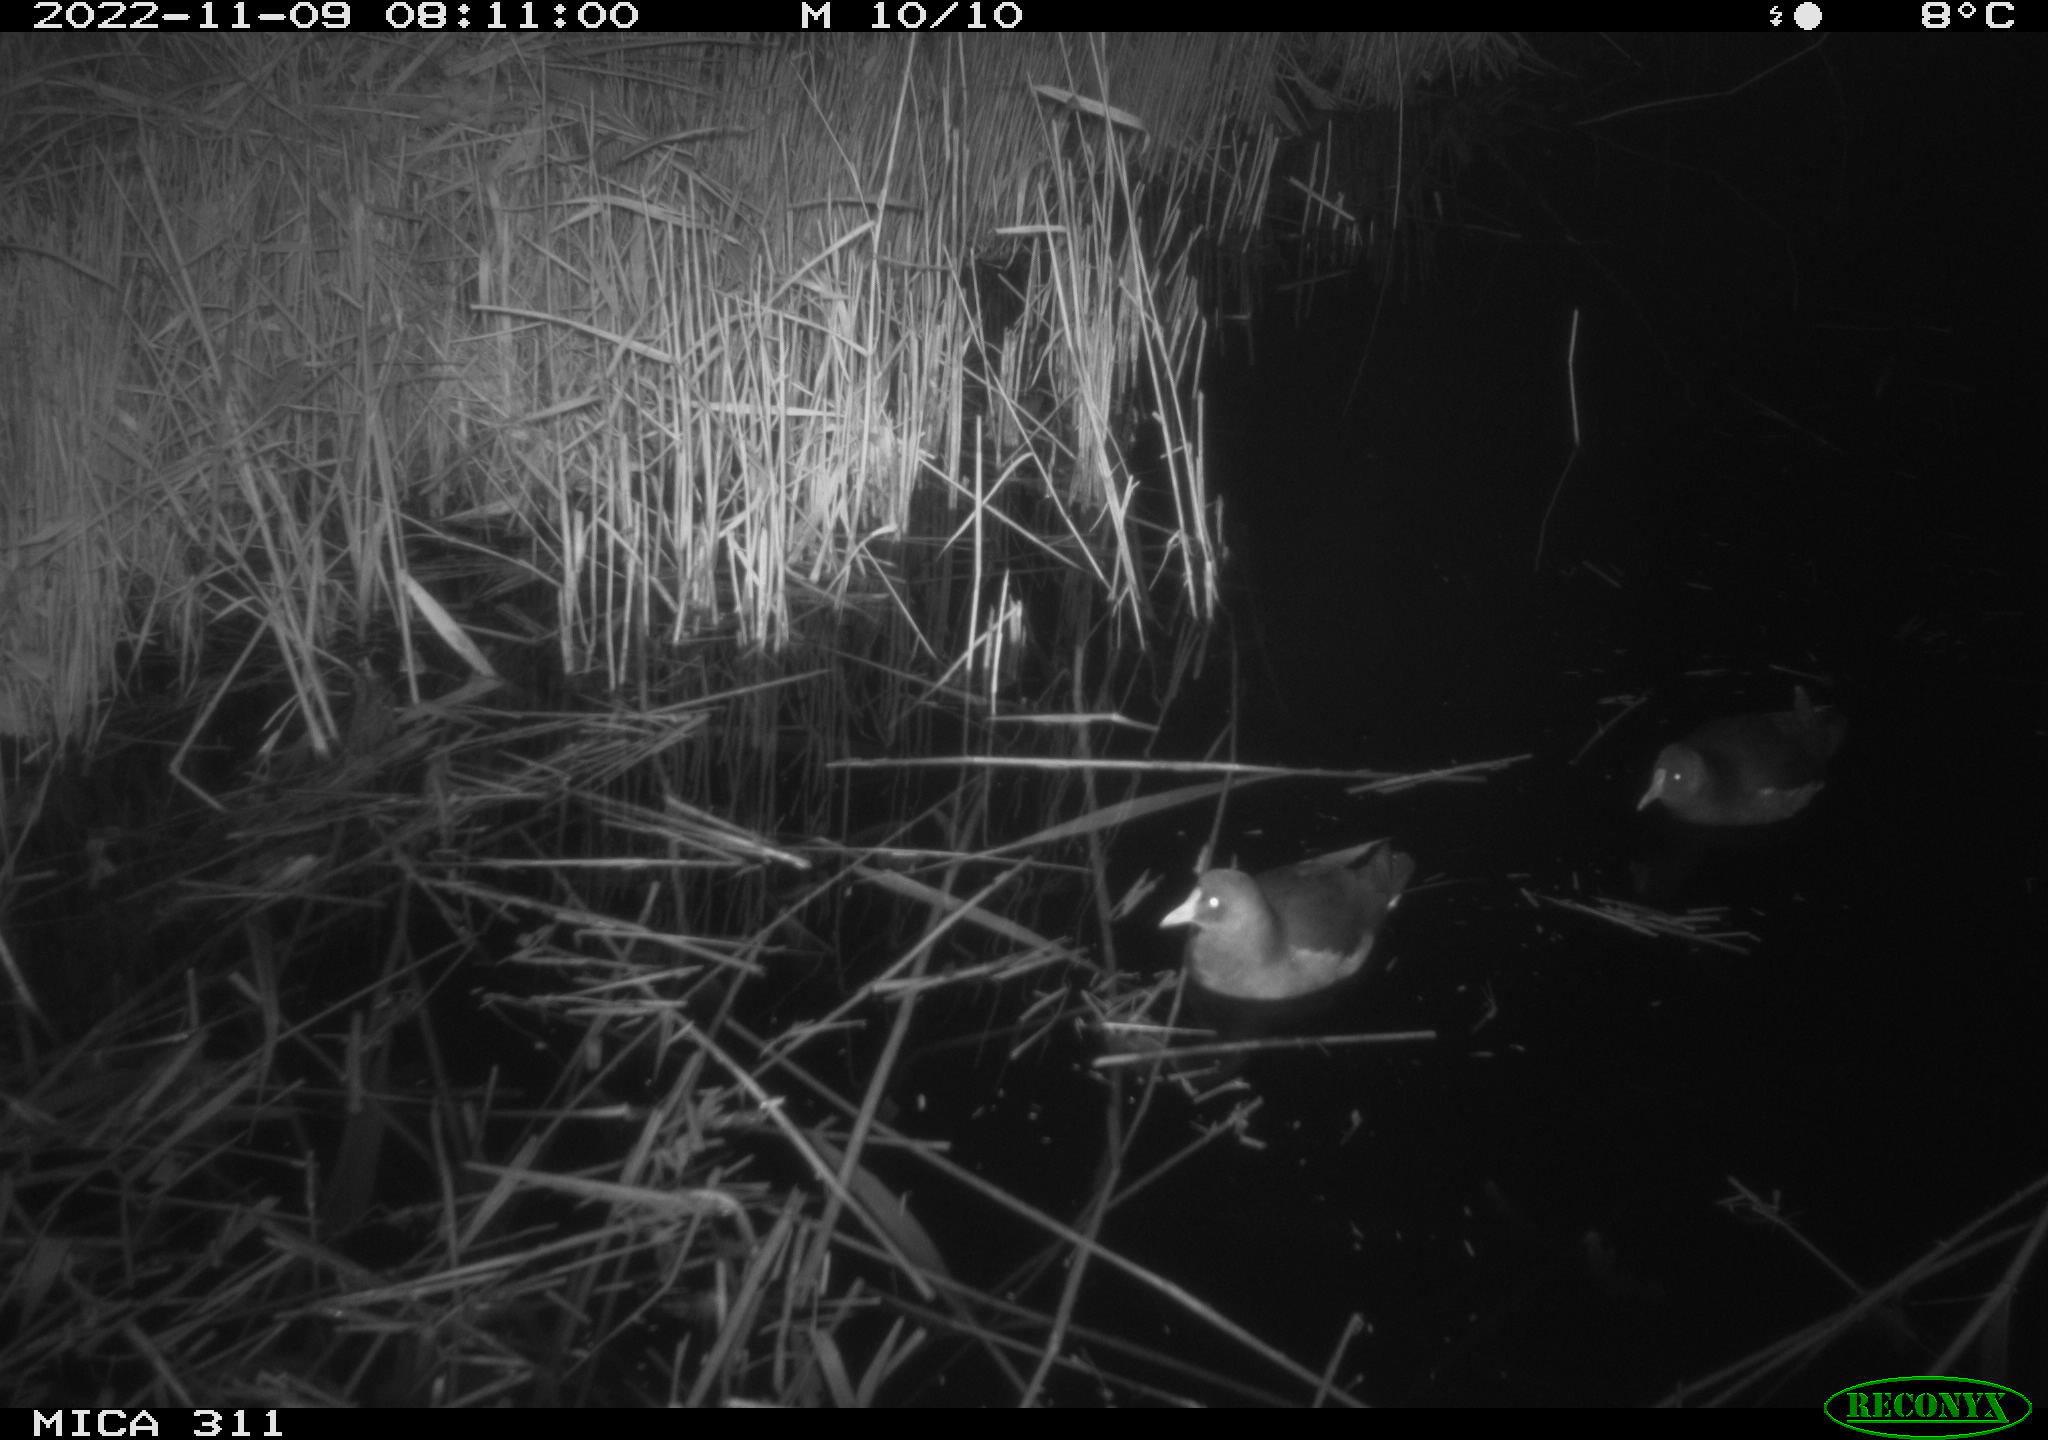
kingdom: Animalia
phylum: Chordata
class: Aves
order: Gruiformes
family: Rallidae
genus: Gallinula
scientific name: Gallinula chloropus
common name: Common moorhen
